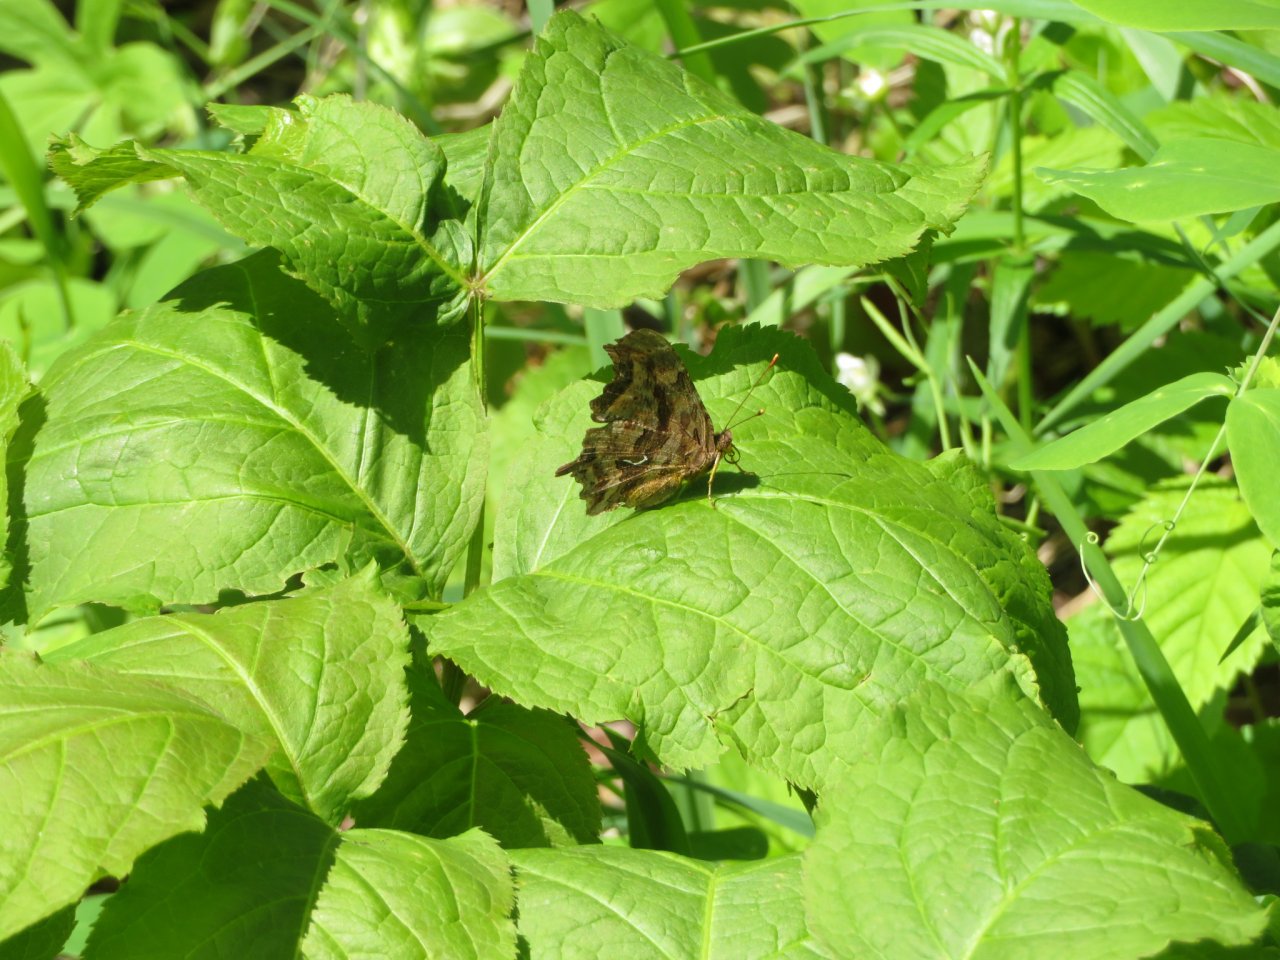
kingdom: Animalia
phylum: Arthropoda
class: Insecta
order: Lepidoptera
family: Nymphalidae
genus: Polygonia
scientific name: Polygonia satyrus
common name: Satyr Comma
